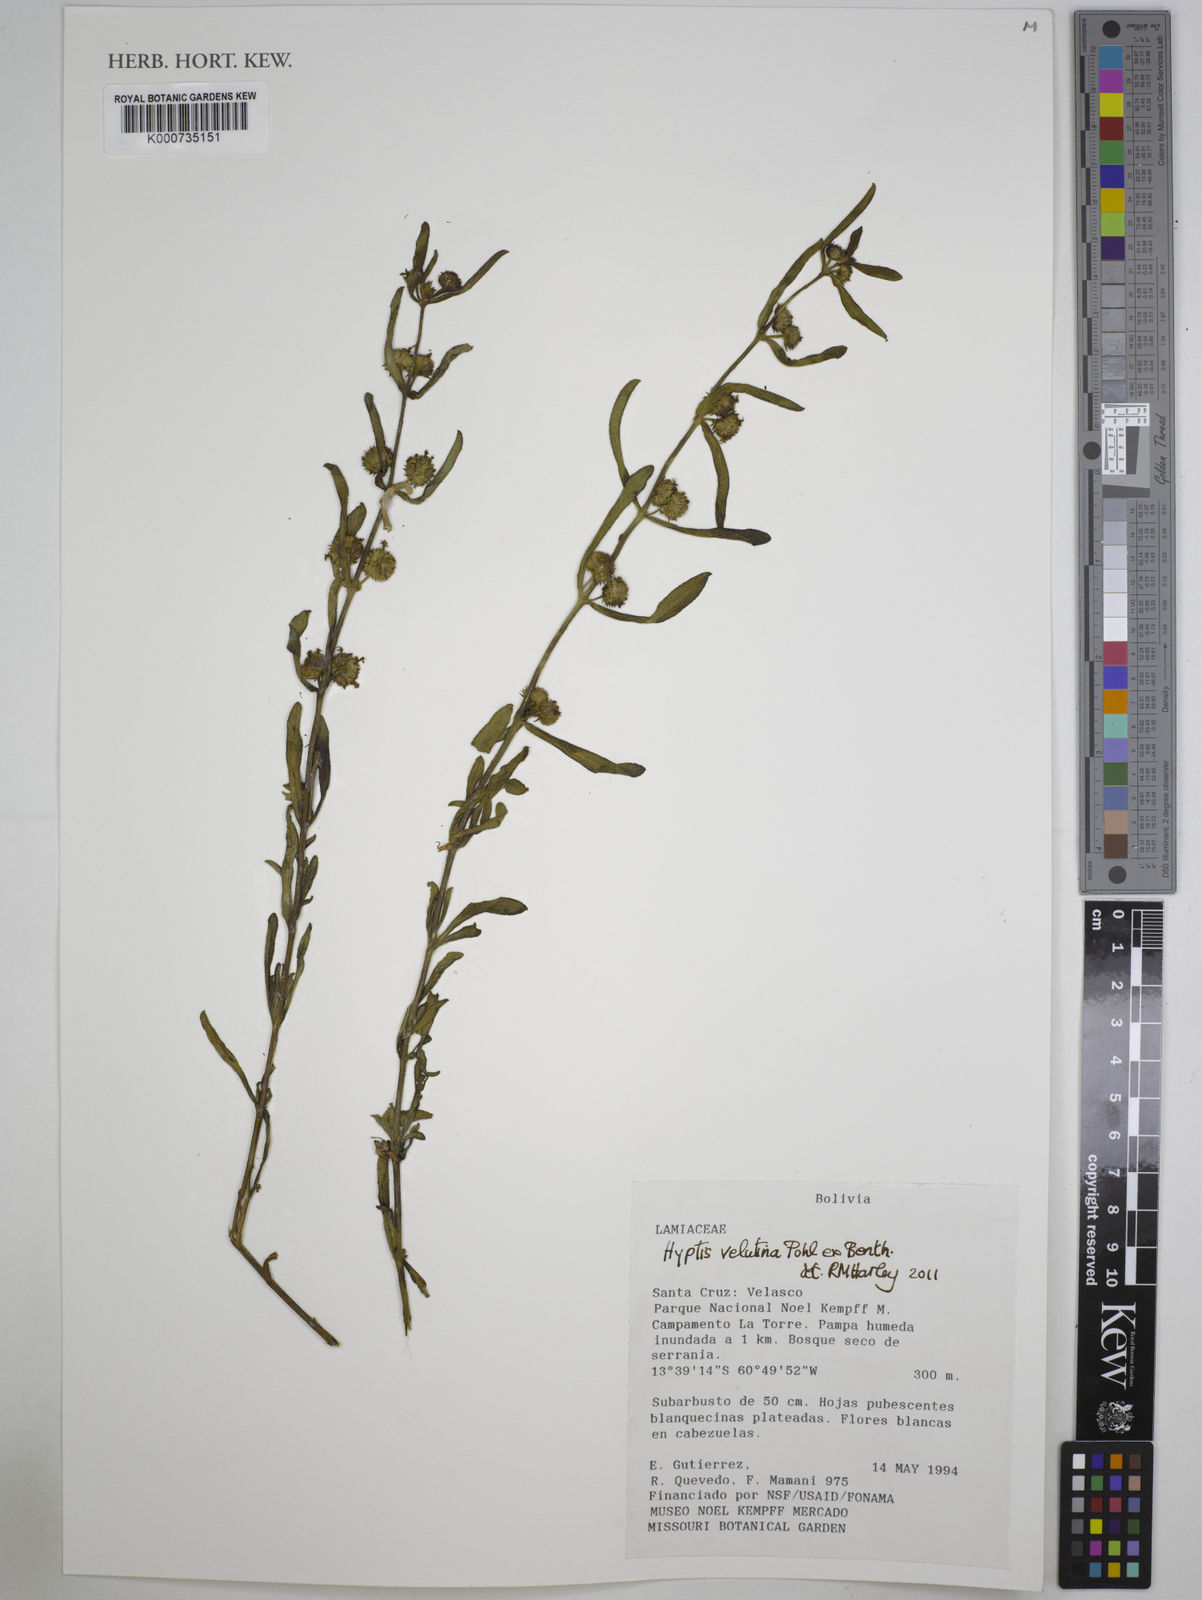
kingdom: Plantae
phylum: Tracheophyta
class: Magnoliopsida
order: Lamiales
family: Lamiaceae
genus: Hyptis
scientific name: Hyptis velutina
